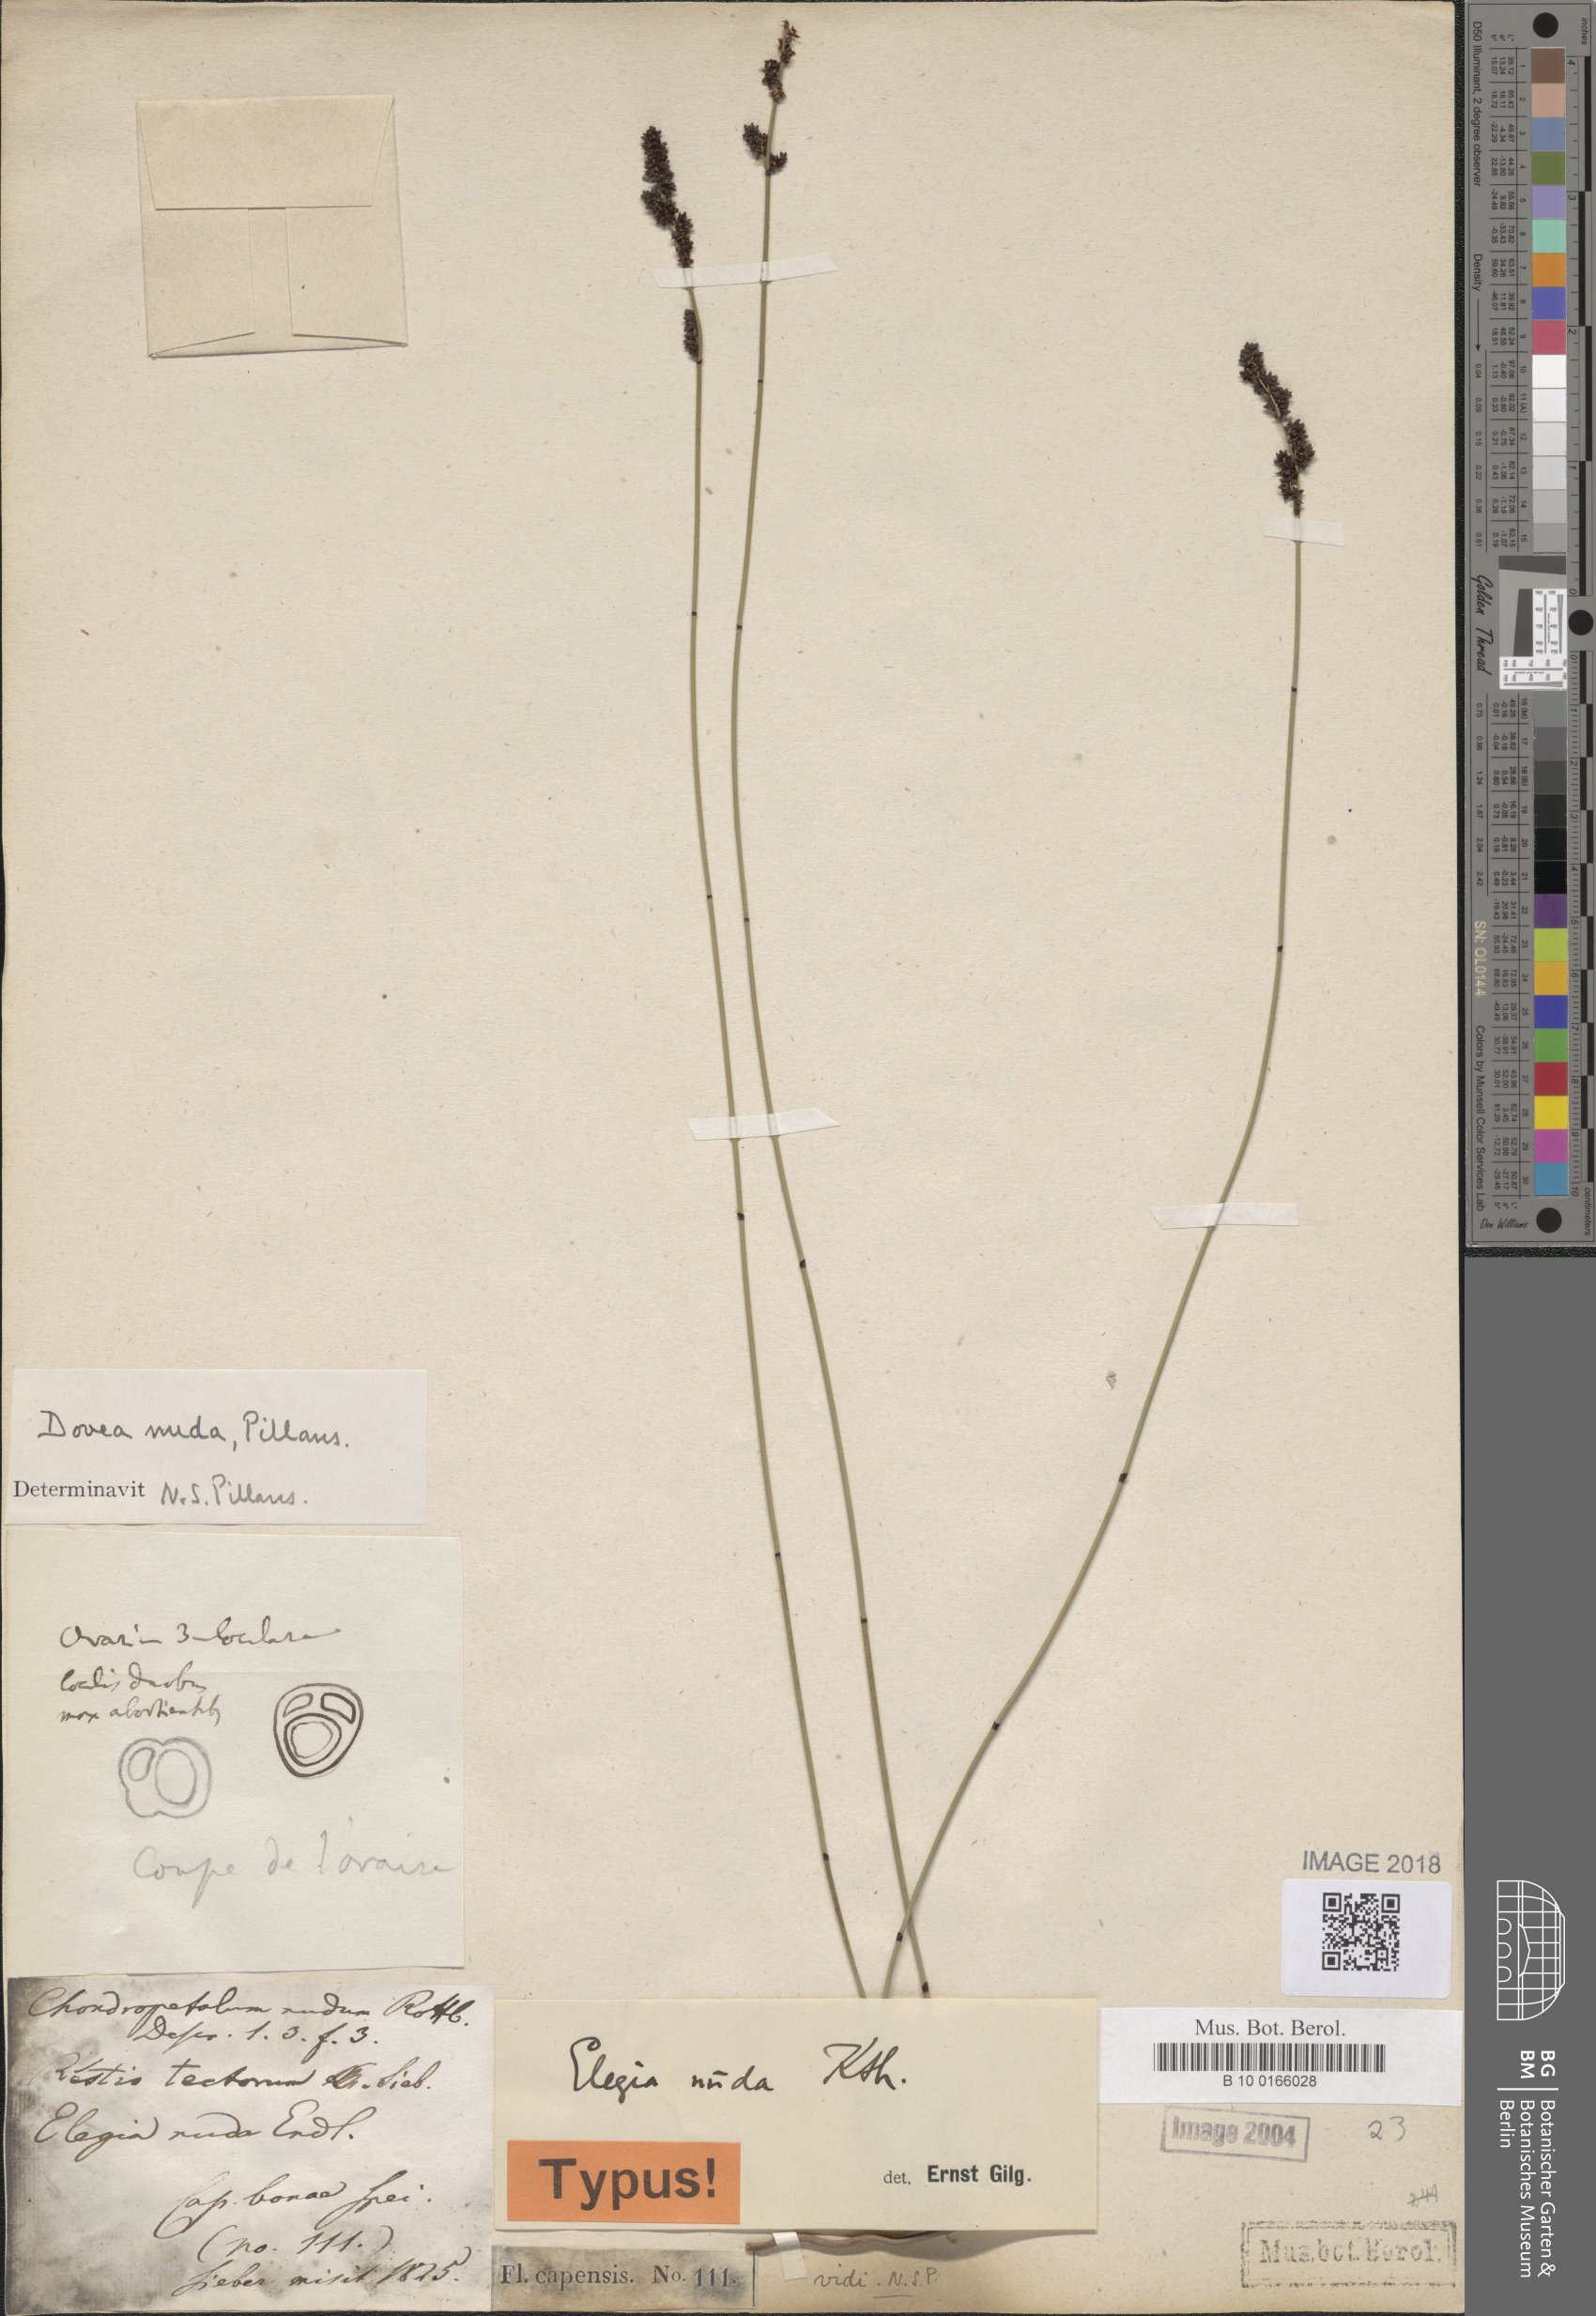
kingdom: Plantae
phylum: Tracheophyta
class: Liliopsida
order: Poales
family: Restionaceae
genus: Elegia
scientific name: Elegia nuda
